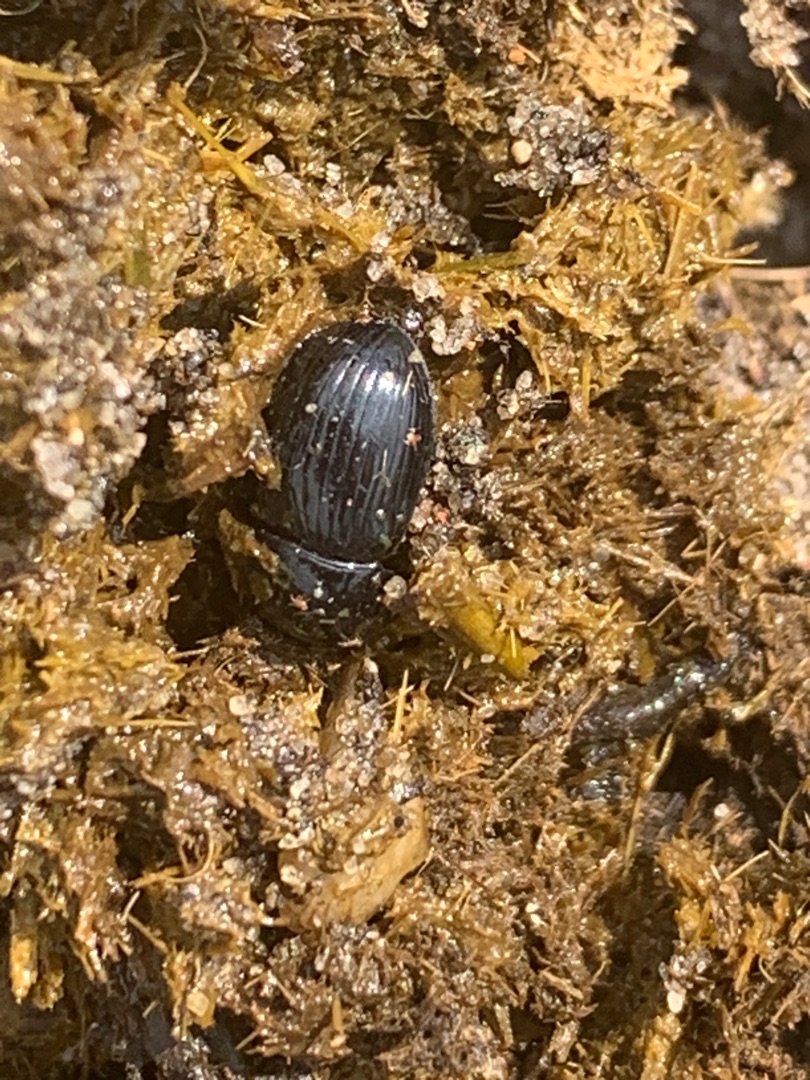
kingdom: Animalia
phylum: Arthropoda
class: Insecta
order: Coleoptera
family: Scarabaeidae
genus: Teuchestes
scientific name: Teuchestes fossor
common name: Stor møgbille
